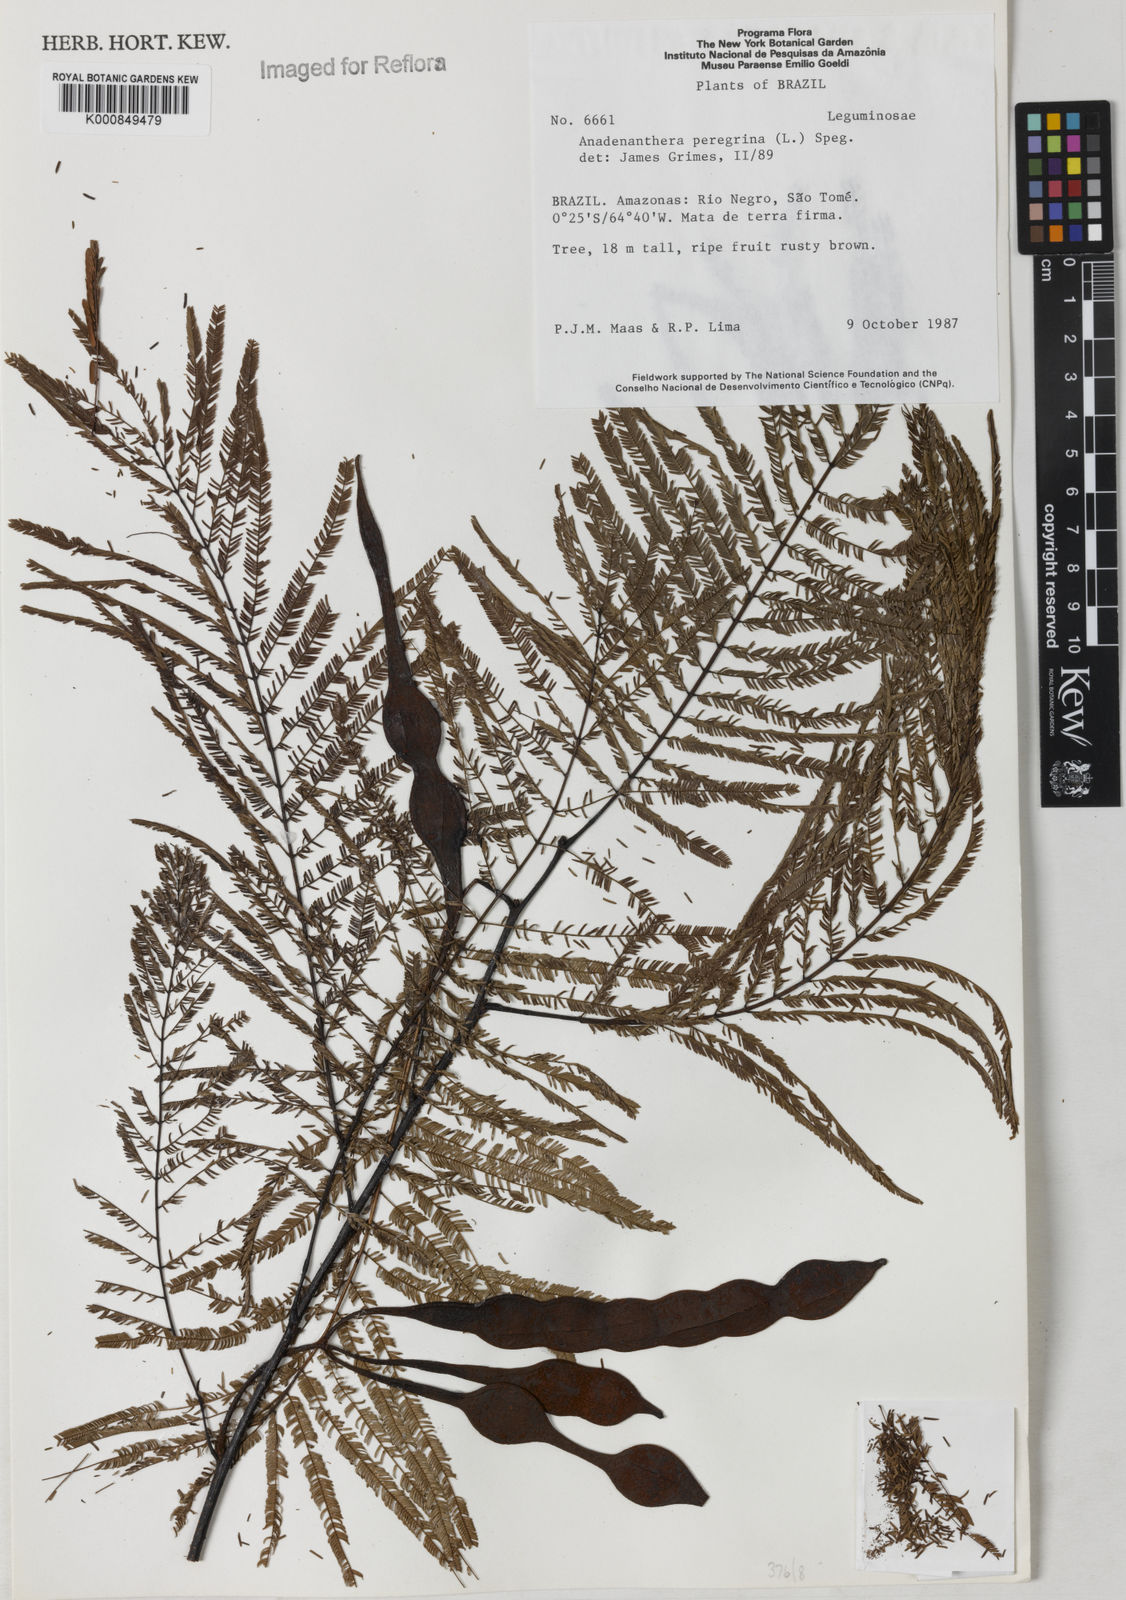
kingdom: Plantae
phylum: Tracheophyta
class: Magnoliopsida
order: Fabales
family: Fabaceae
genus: Anadenanthera
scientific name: Anadenanthera peregrina
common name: Cohoba
